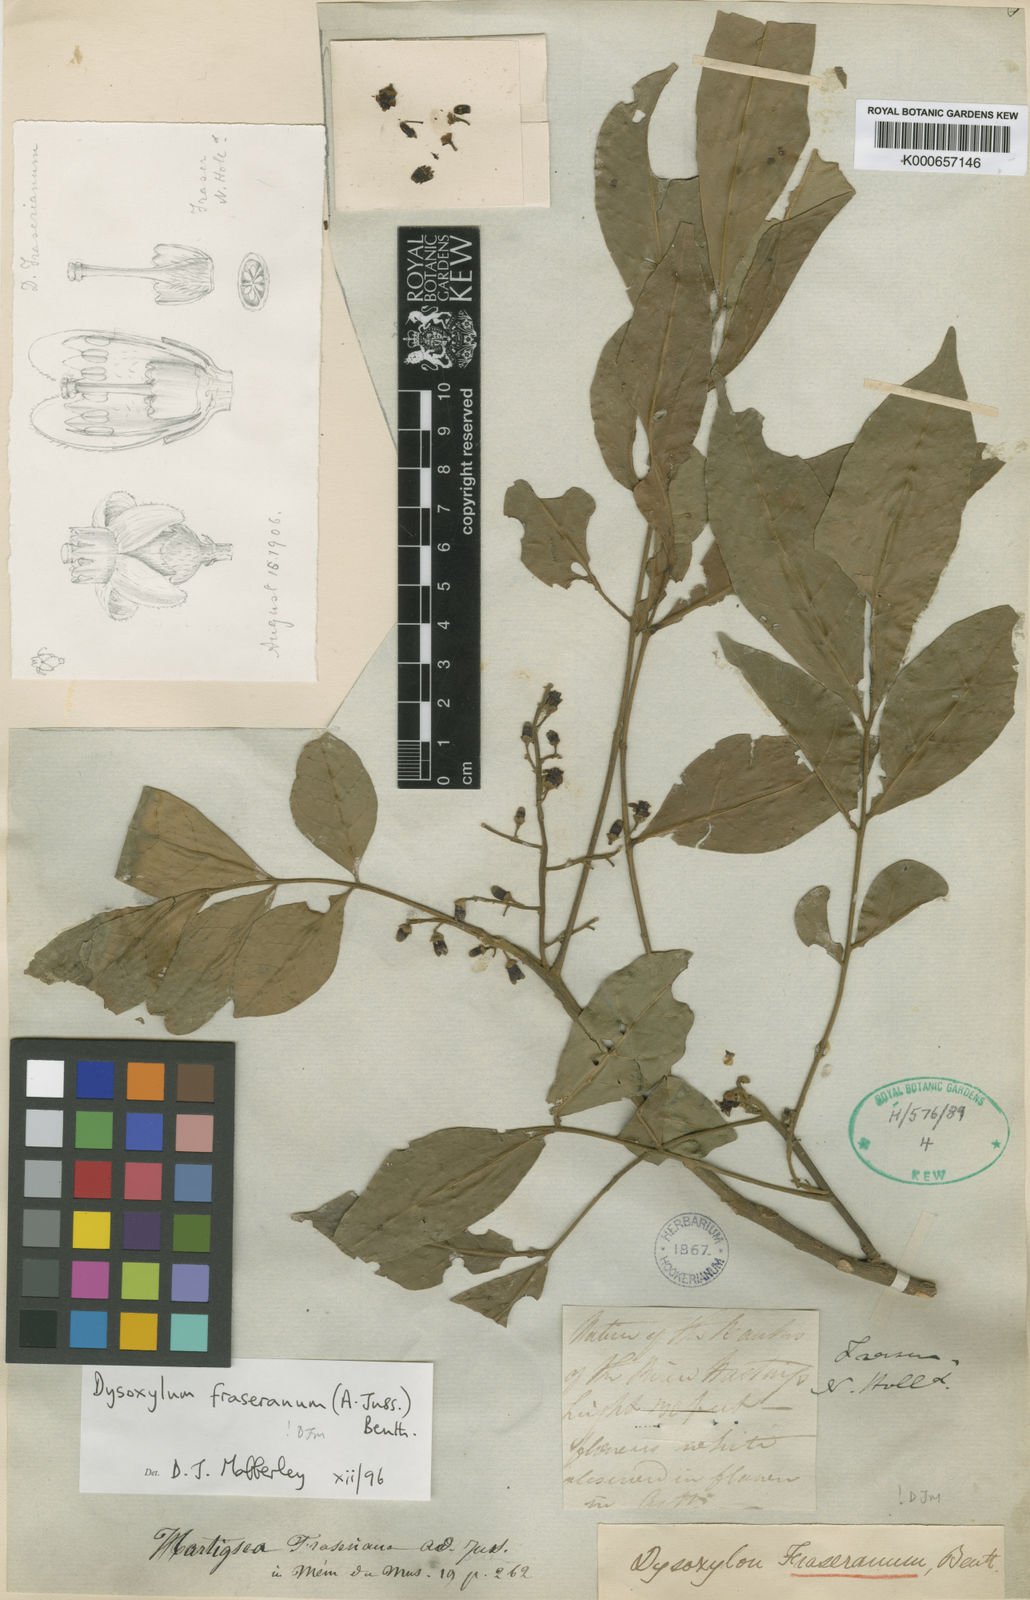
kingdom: Plantae
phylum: Tracheophyta
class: Magnoliopsida
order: Sapindales
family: Meliaceae
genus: Dysoxylum
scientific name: Dysoxylum
